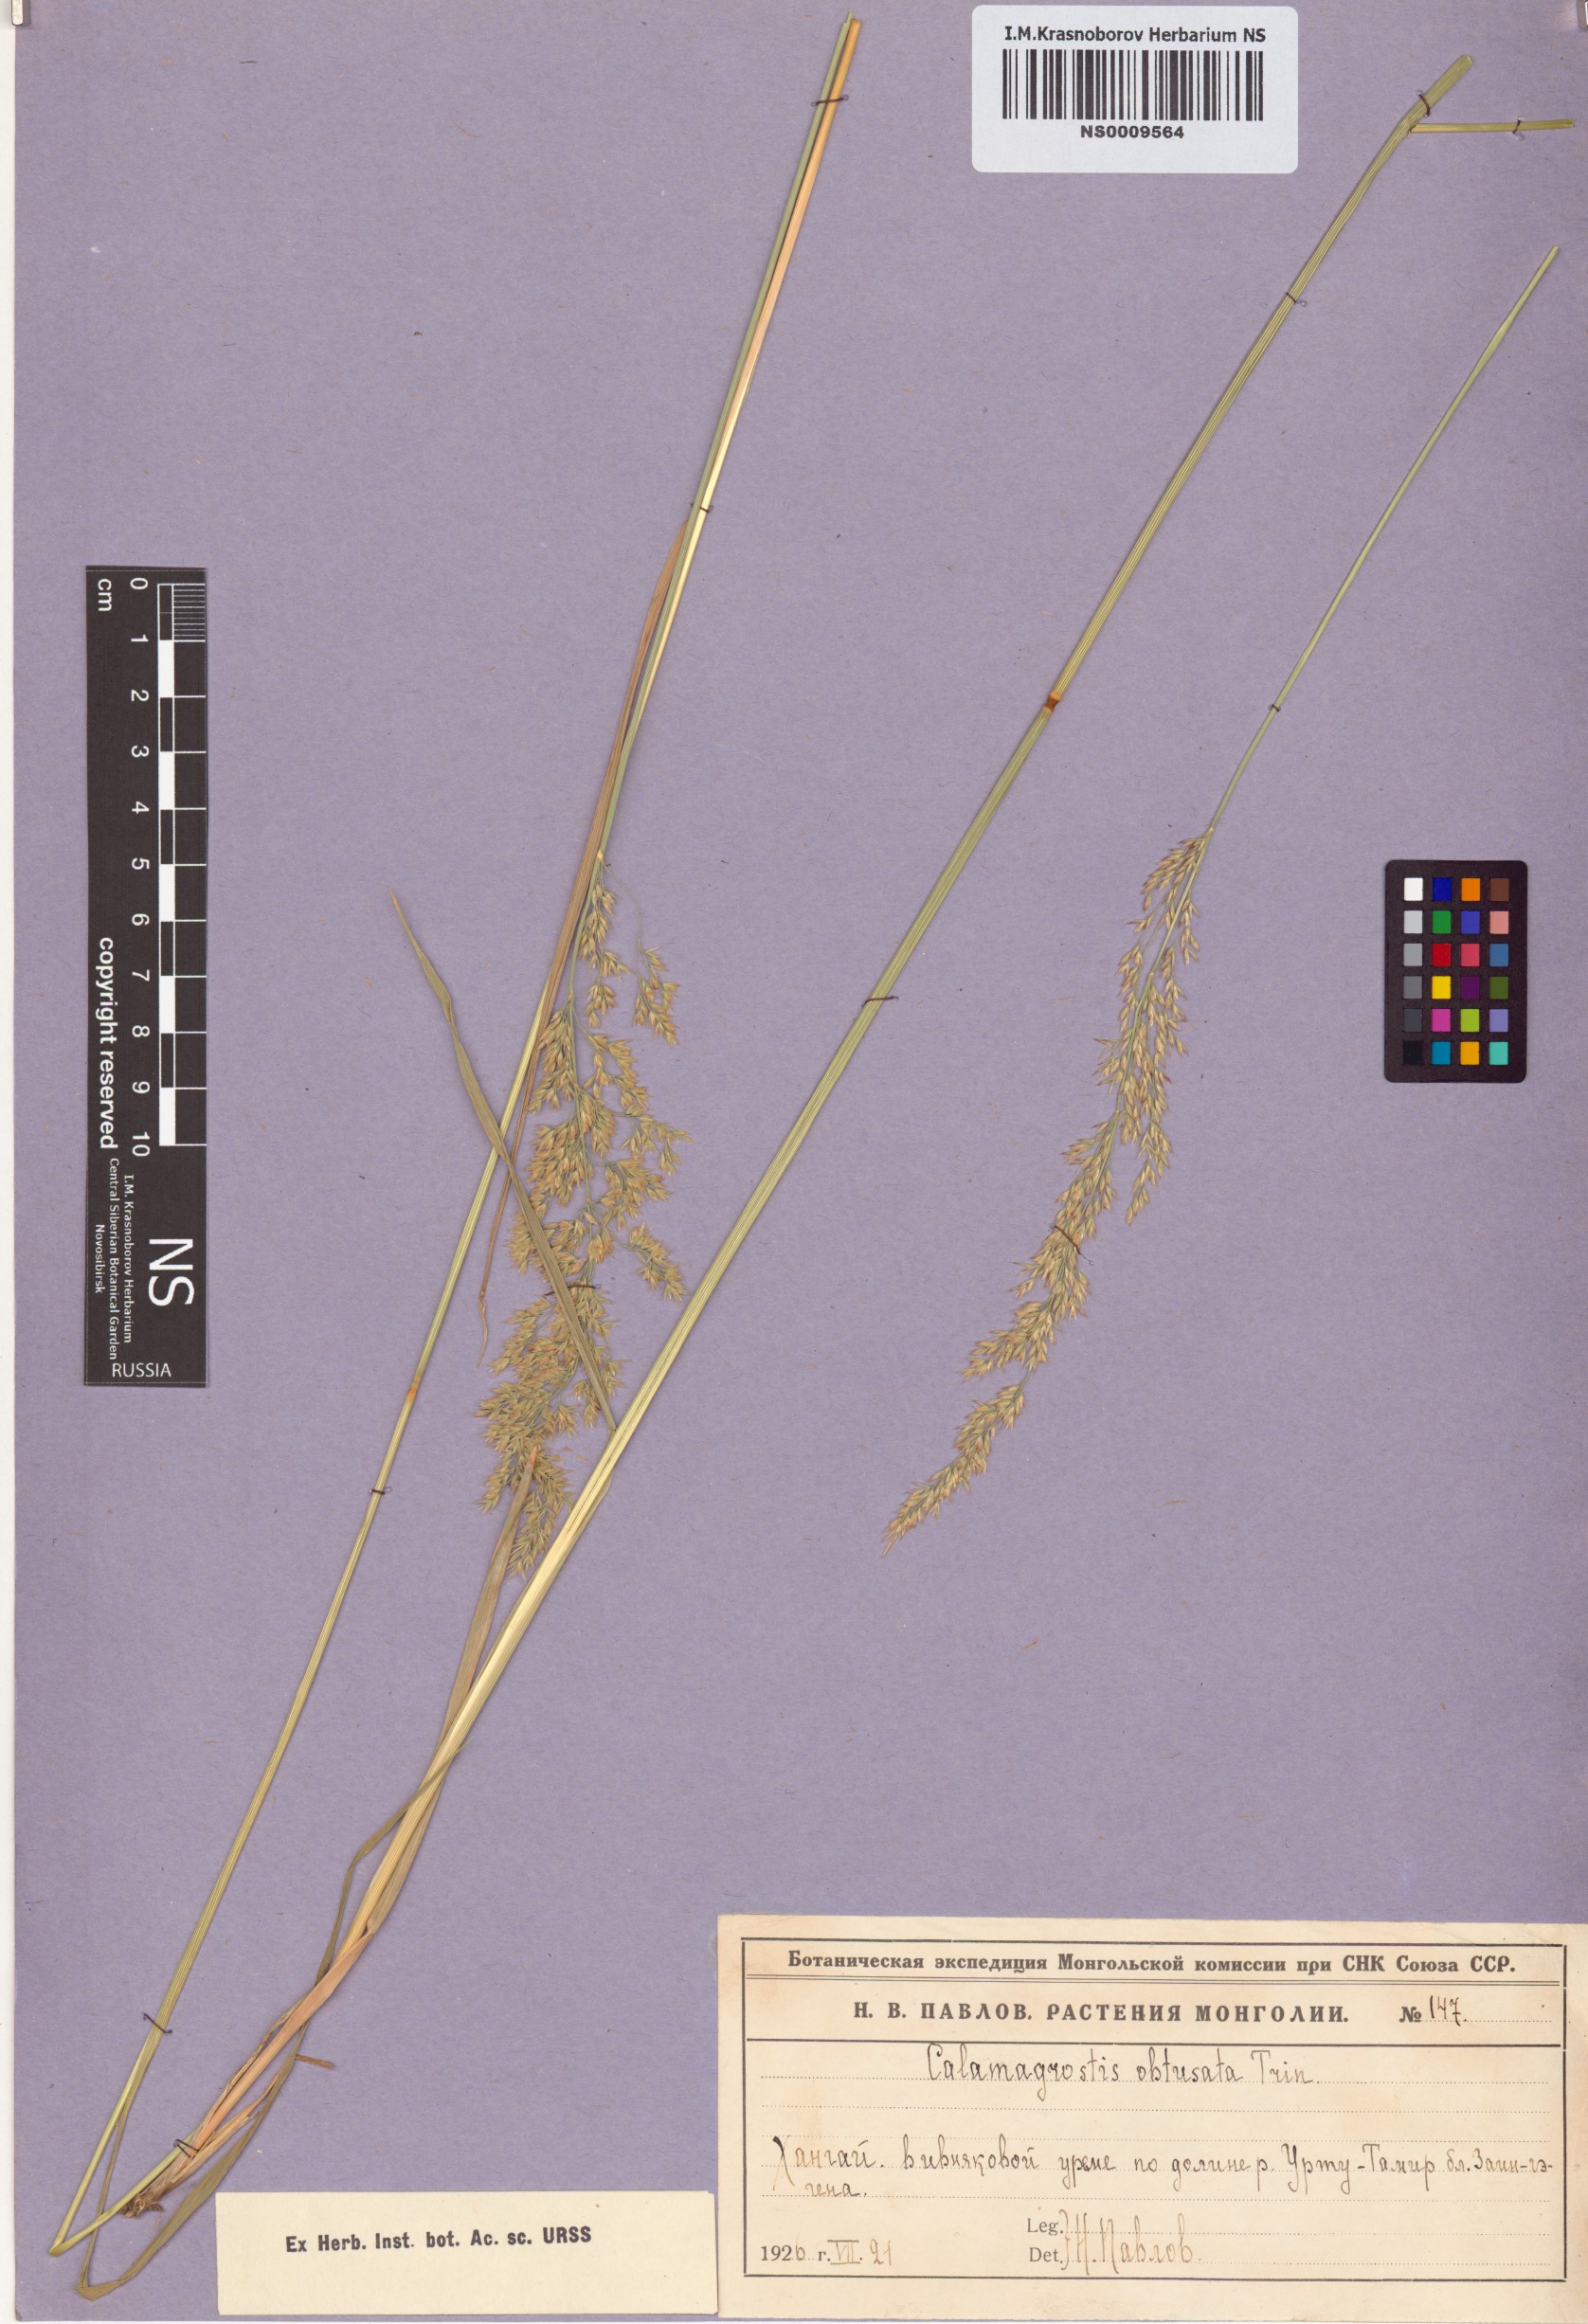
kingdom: Plantae
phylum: Tracheophyta
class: Liliopsida
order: Poales
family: Poaceae
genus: Calamagrostis
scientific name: Calamagrostis obtusata
